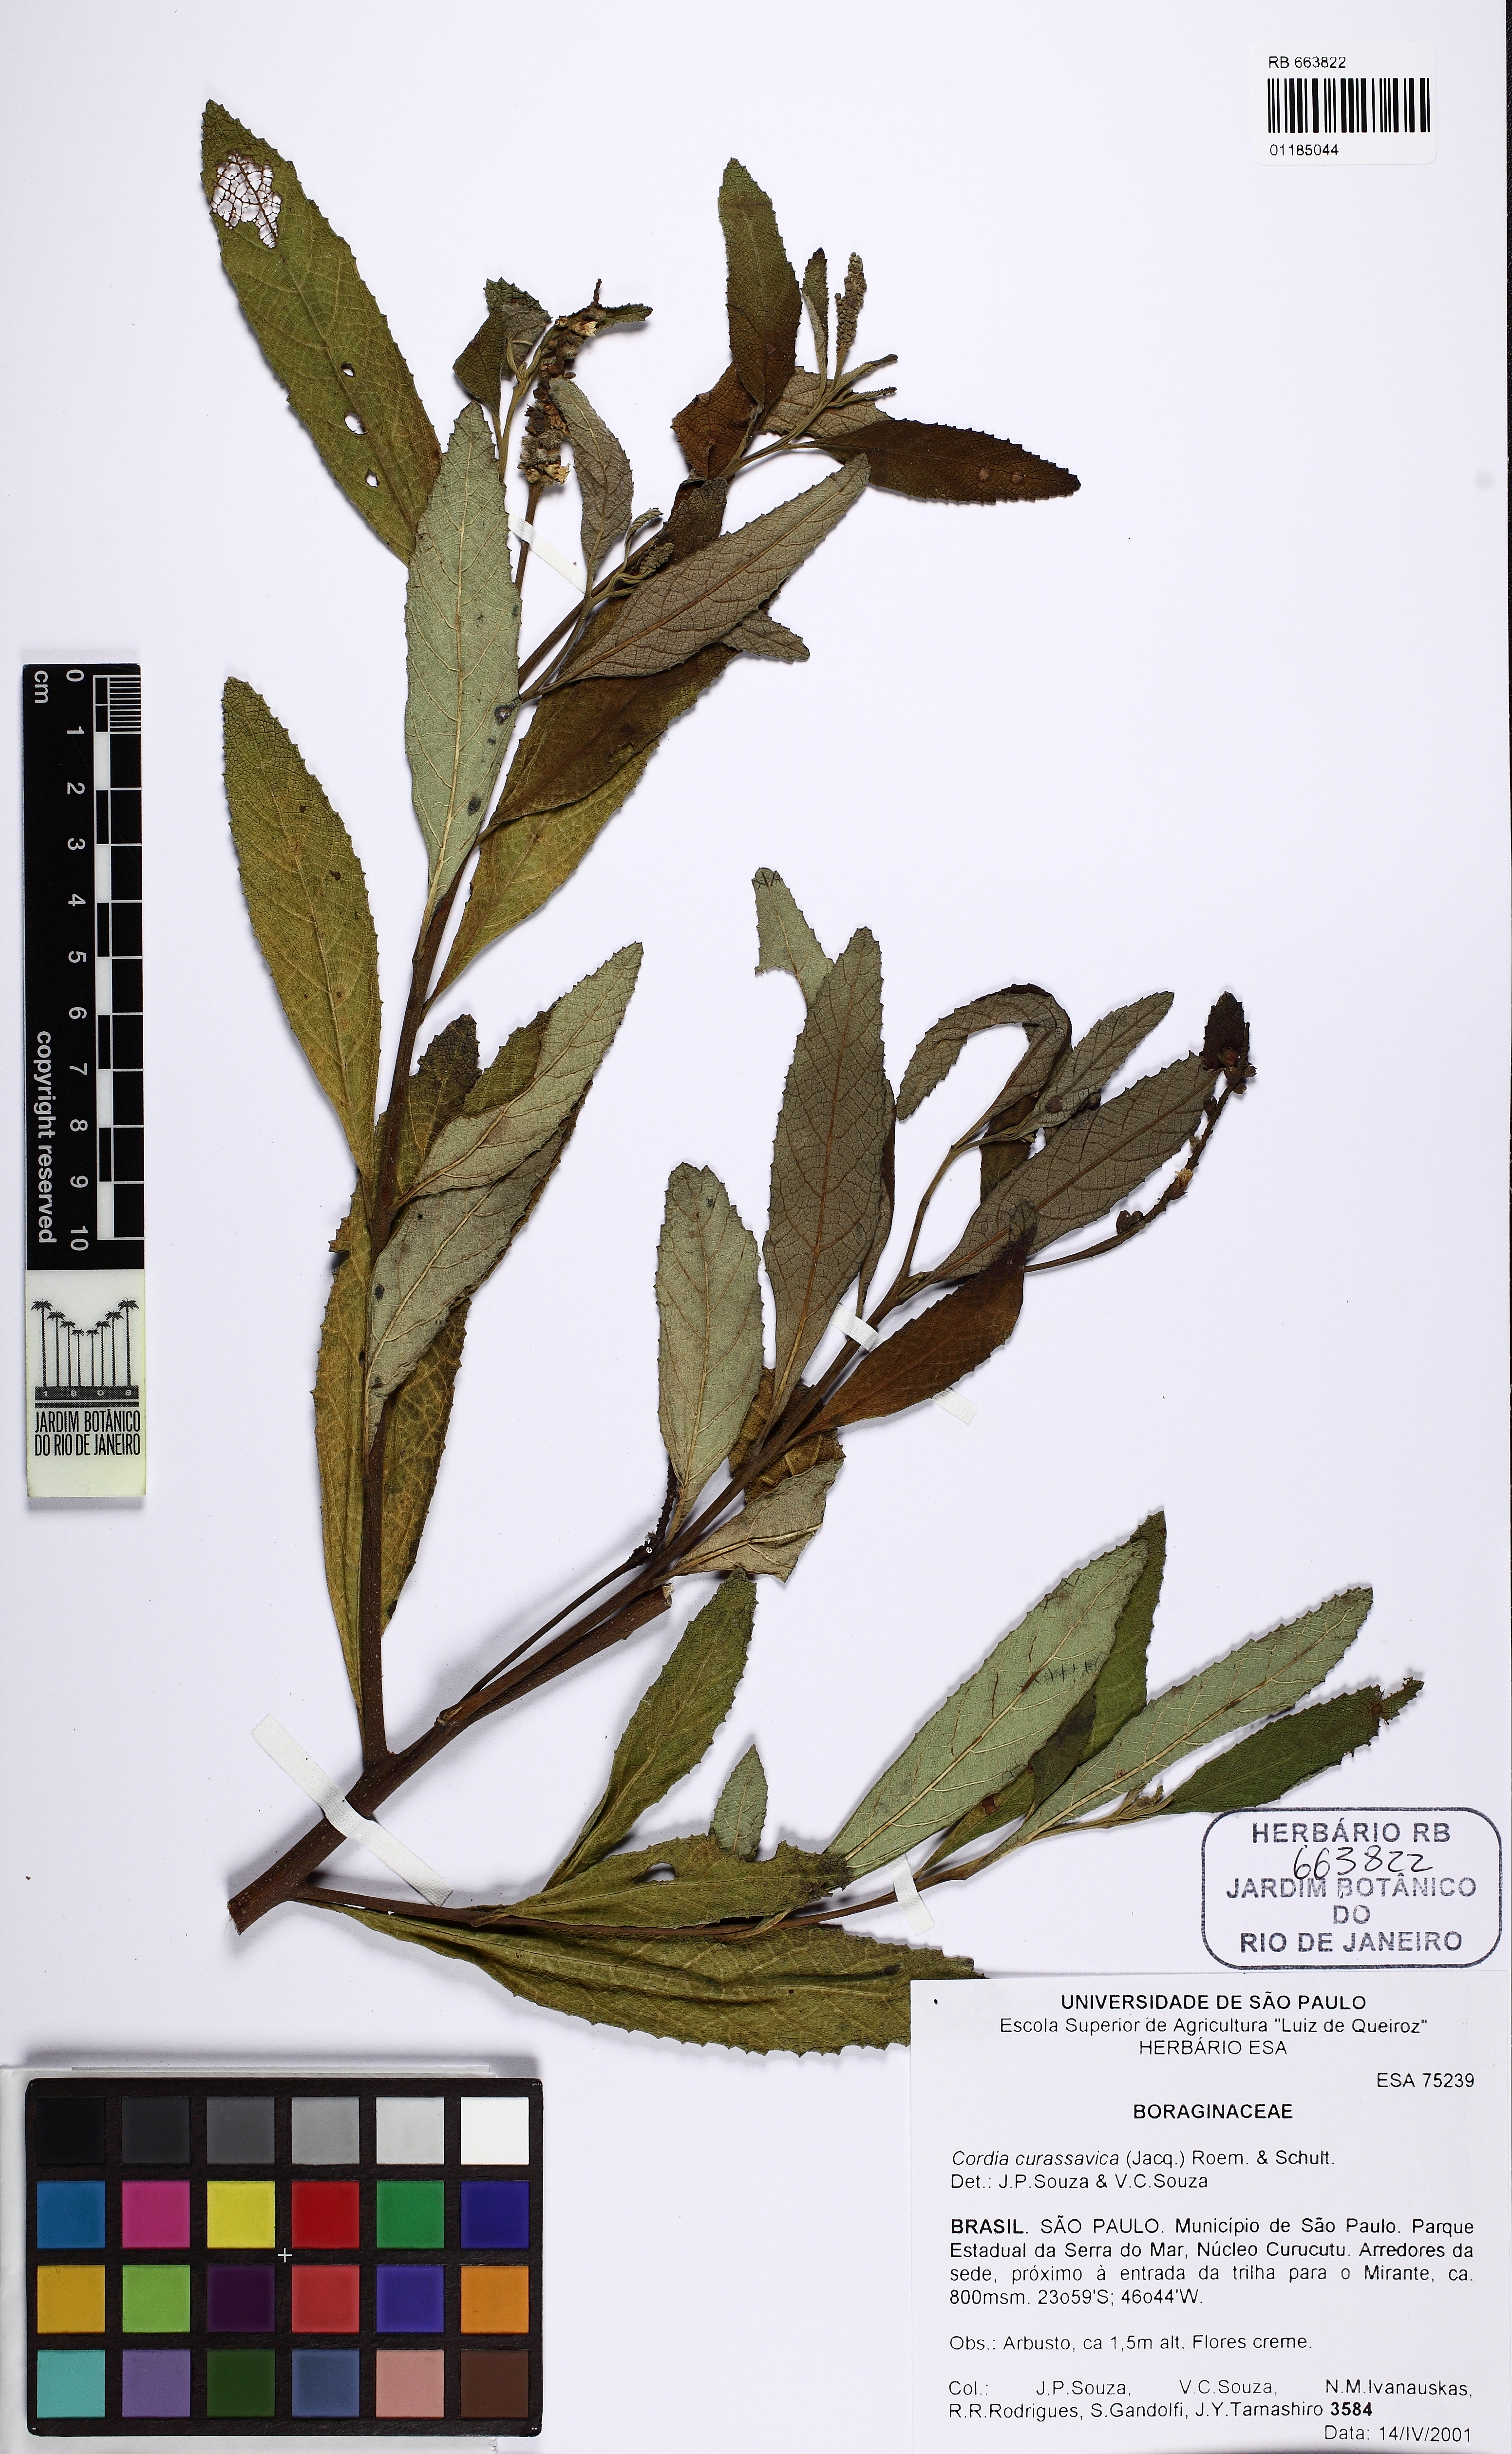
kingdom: Plantae
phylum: Tracheophyta
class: Magnoliopsida
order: Boraginales
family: Cordiaceae
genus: Varronia
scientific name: Varronia curassavica
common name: Black sage
